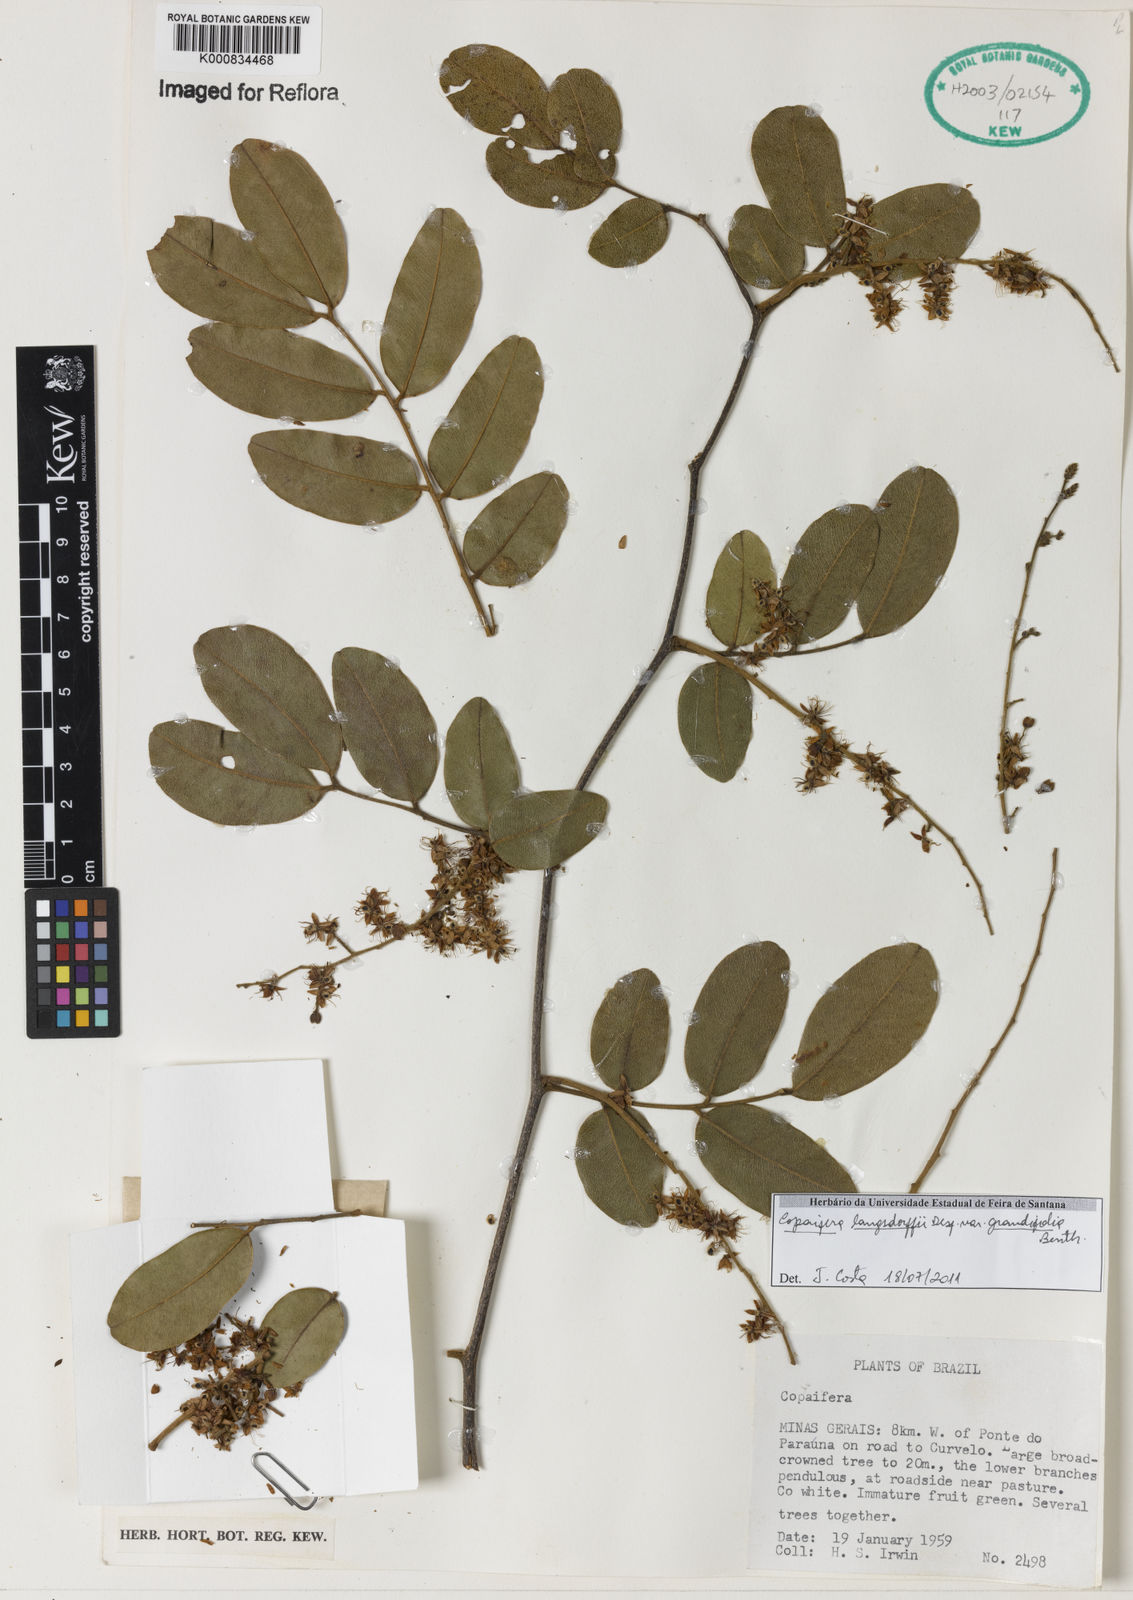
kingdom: Plantae
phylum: Tracheophyta
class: Magnoliopsida
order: Fabales
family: Fabaceae
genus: Copaifera
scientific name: Copaifera langsdorffii
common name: Brazilian diesel tree
